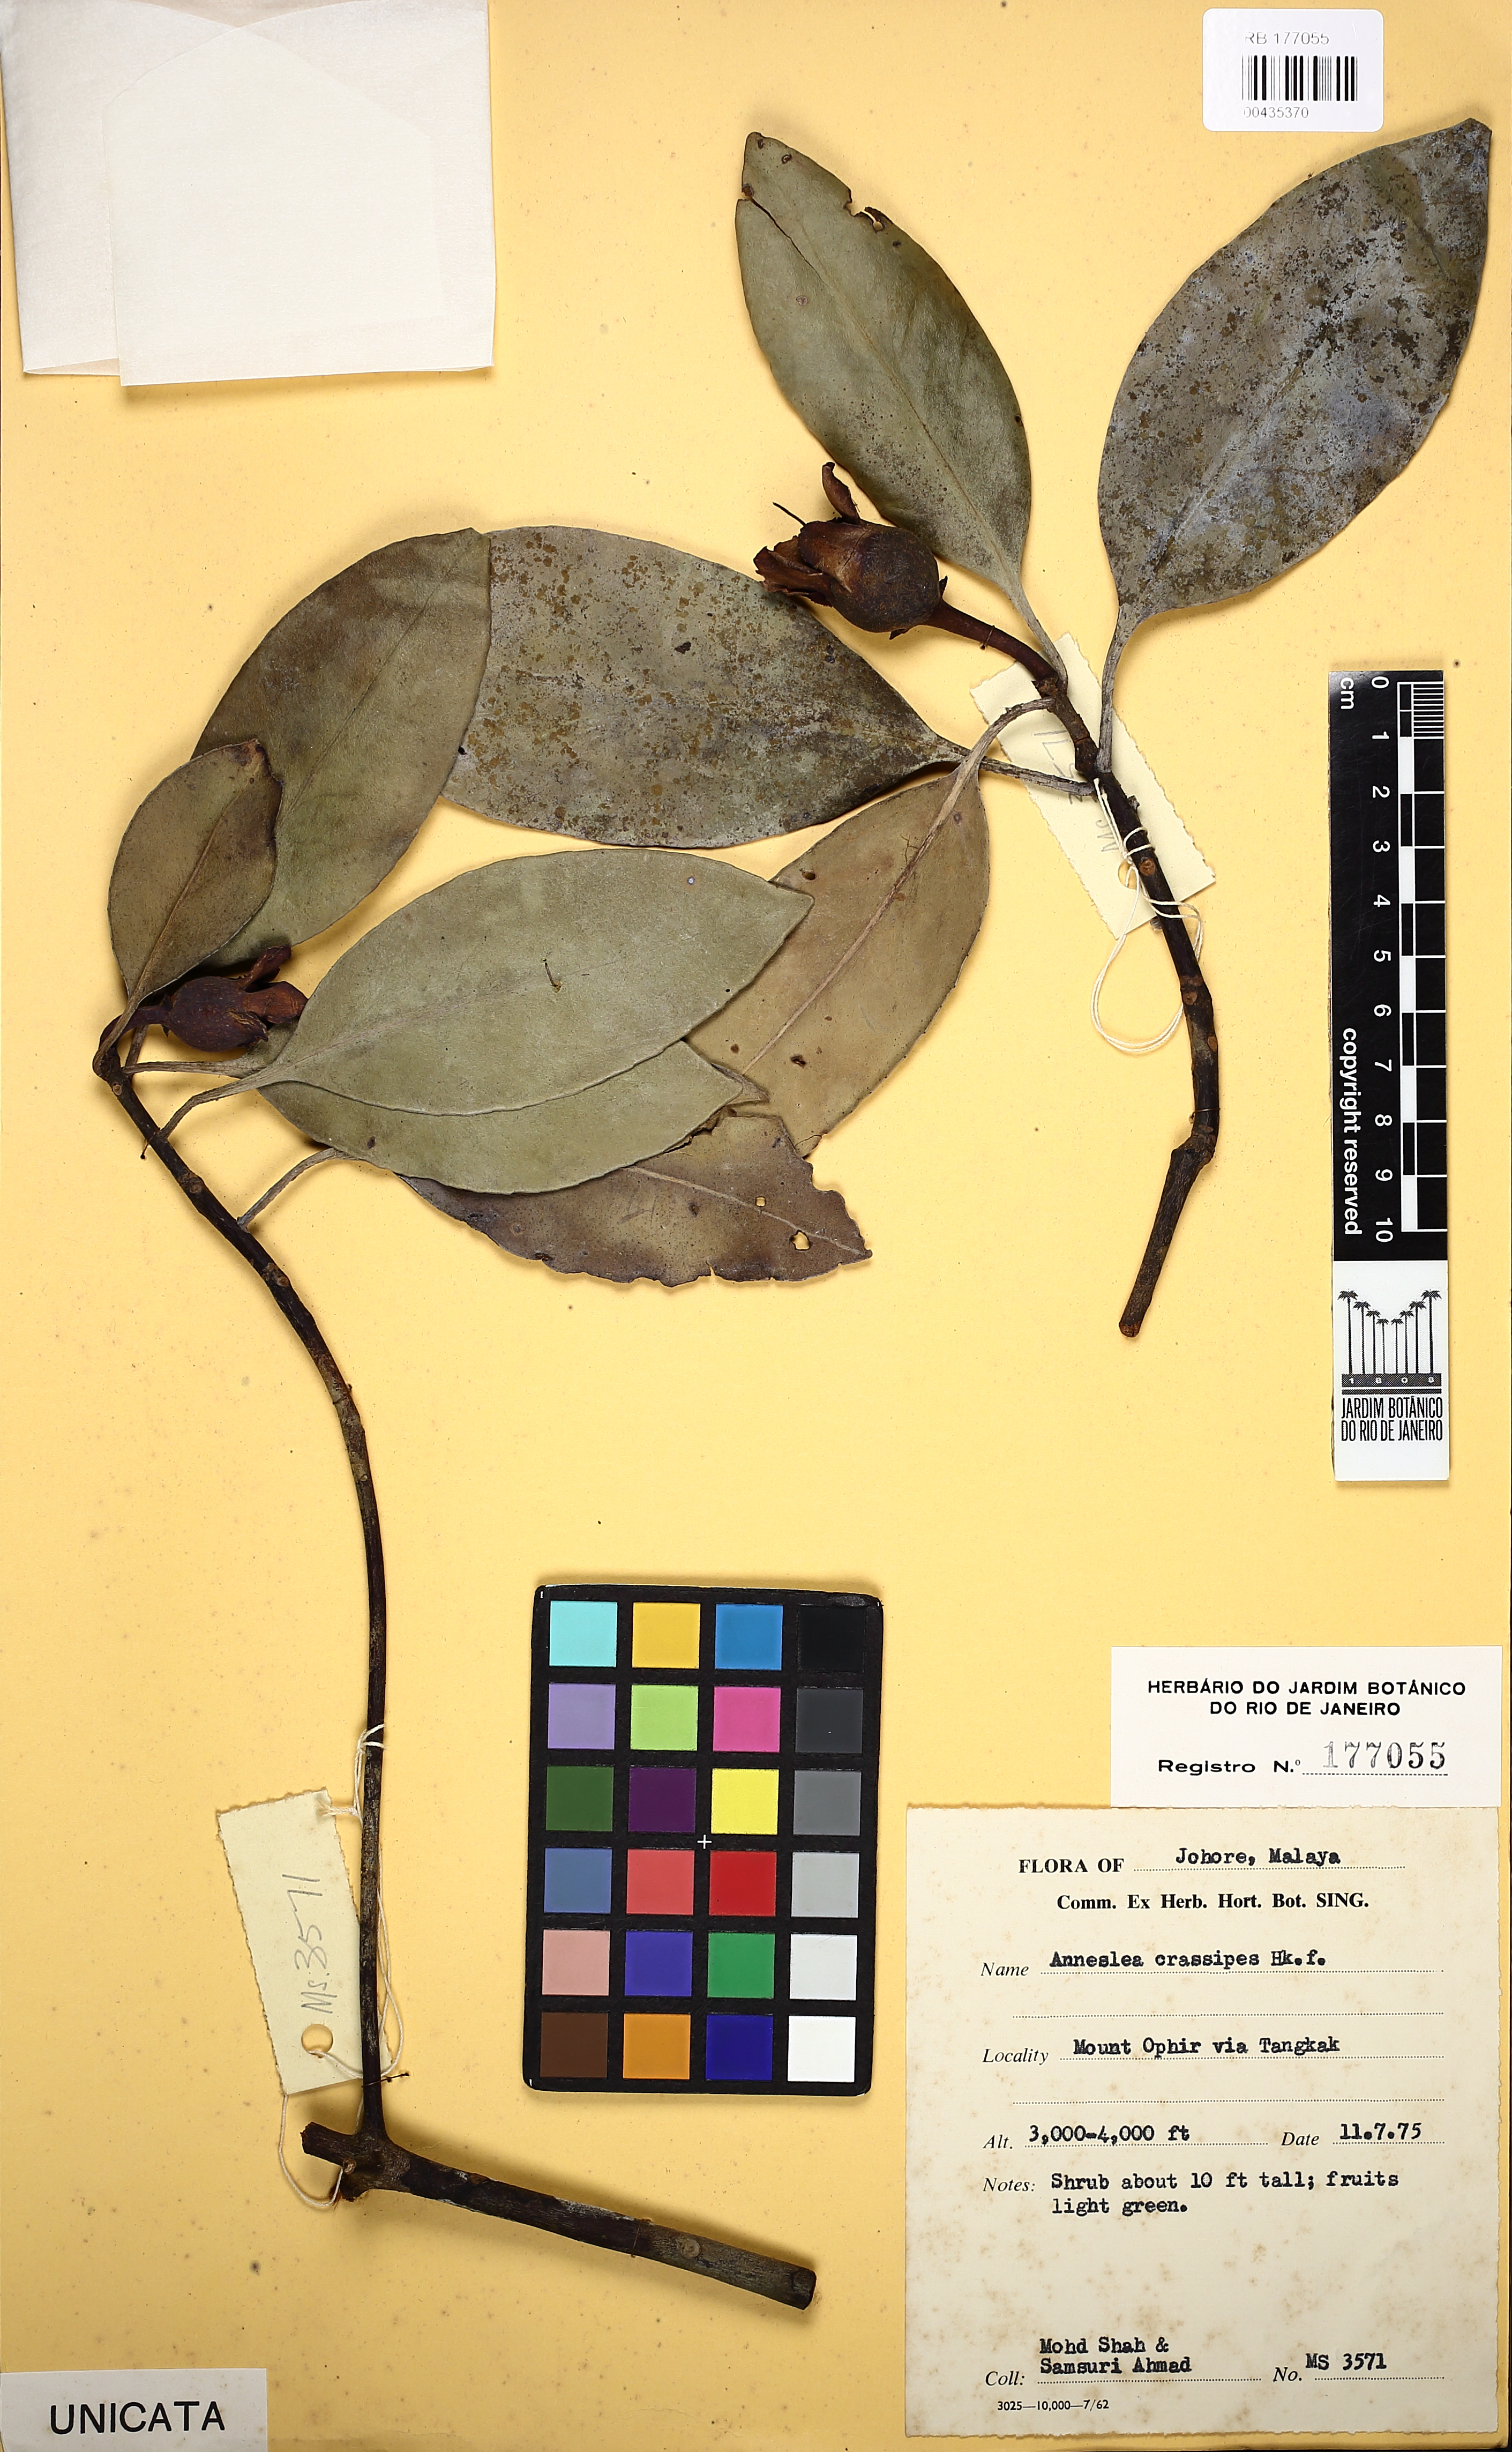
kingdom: Plantae
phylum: Tracheophyta
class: Magnoliopsida
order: Ericales
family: Pentaphylacaceae
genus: Anneslea
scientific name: Anneslea fragrans
